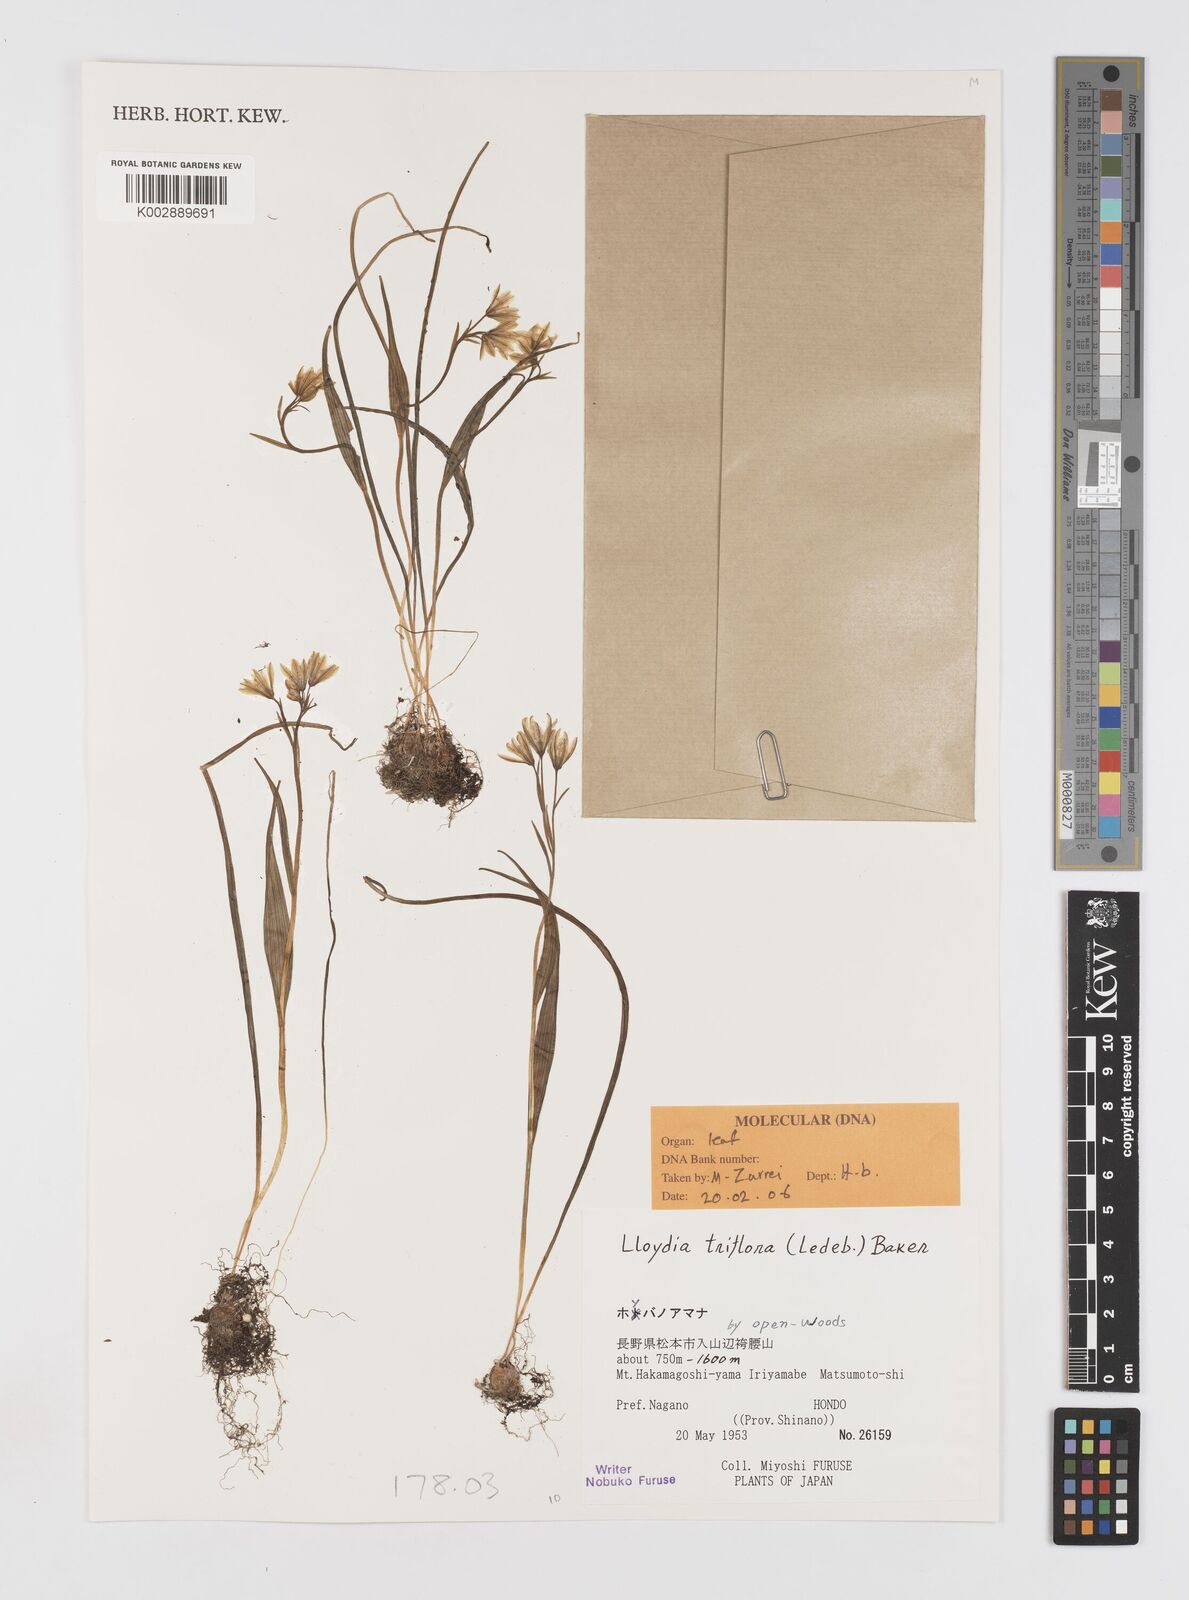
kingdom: Plantae
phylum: Tracheophyta
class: Liliopsida
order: Liliales
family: Liliaceae
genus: Gagea
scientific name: Gagea triflora
